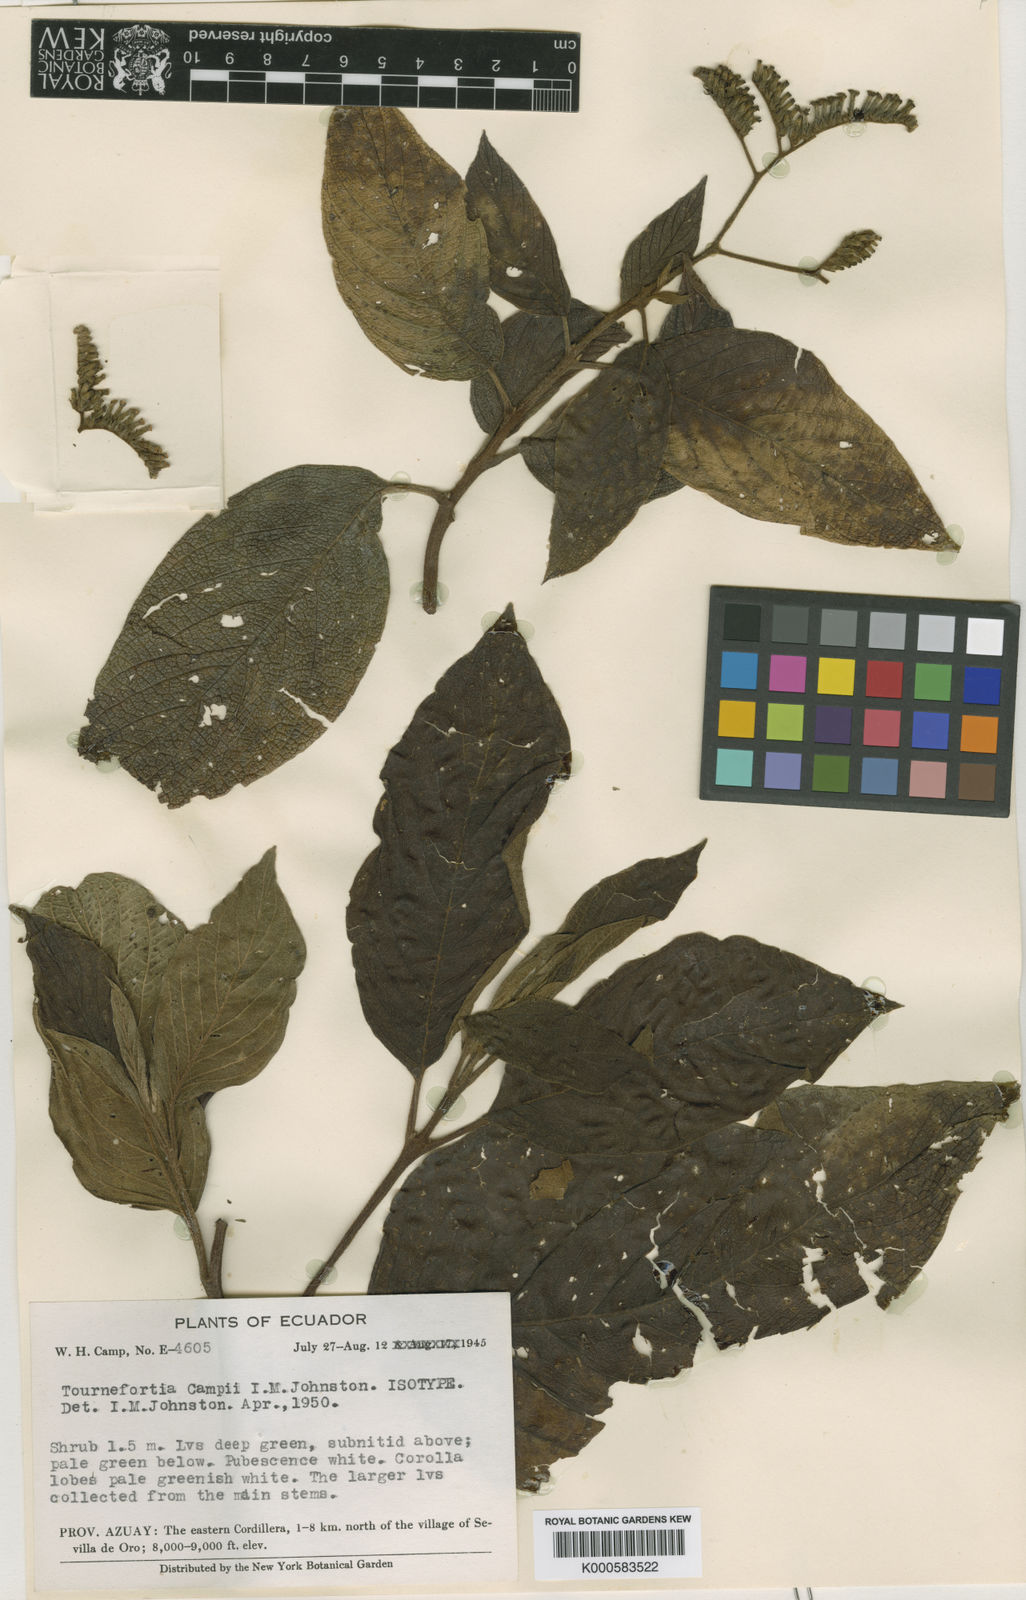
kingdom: Plantae
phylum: Tracheophyta
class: Magnoliopsida
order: Boraginales
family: Heliotropiaceae
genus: Tournefortia
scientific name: Tournefortia chinchensis
